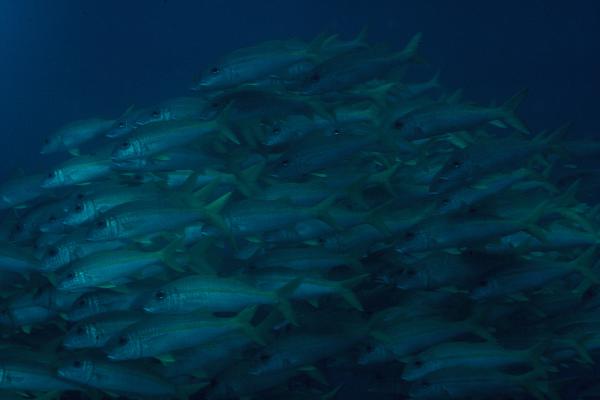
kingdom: Animalia
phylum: Chordata
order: Perciformes
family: Mullidae
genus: Mulloidichthys
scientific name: Mulloidichthys vanicolensis
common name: Yellowfin goatfish
